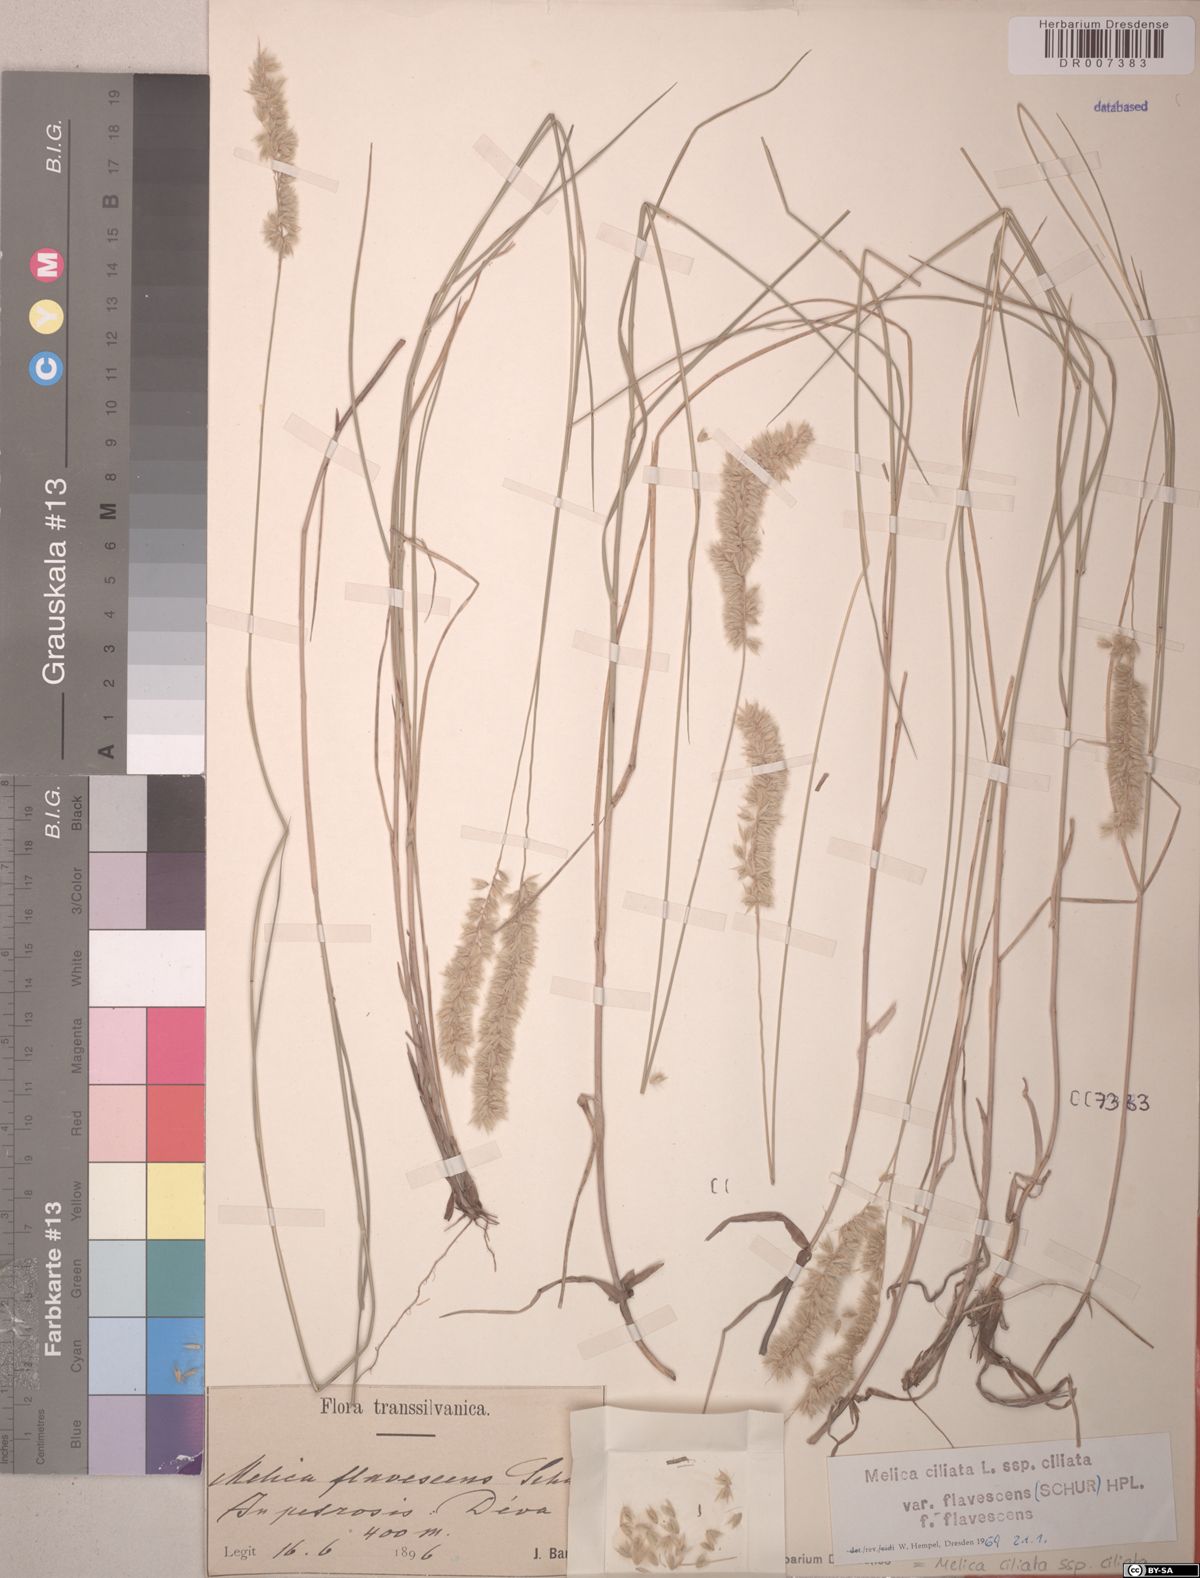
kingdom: Plantae
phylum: Tracheophyta
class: Liliopsida
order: Poales
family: Poaceae
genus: Melica
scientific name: Melica ciliata
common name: Hairy melicgrass
